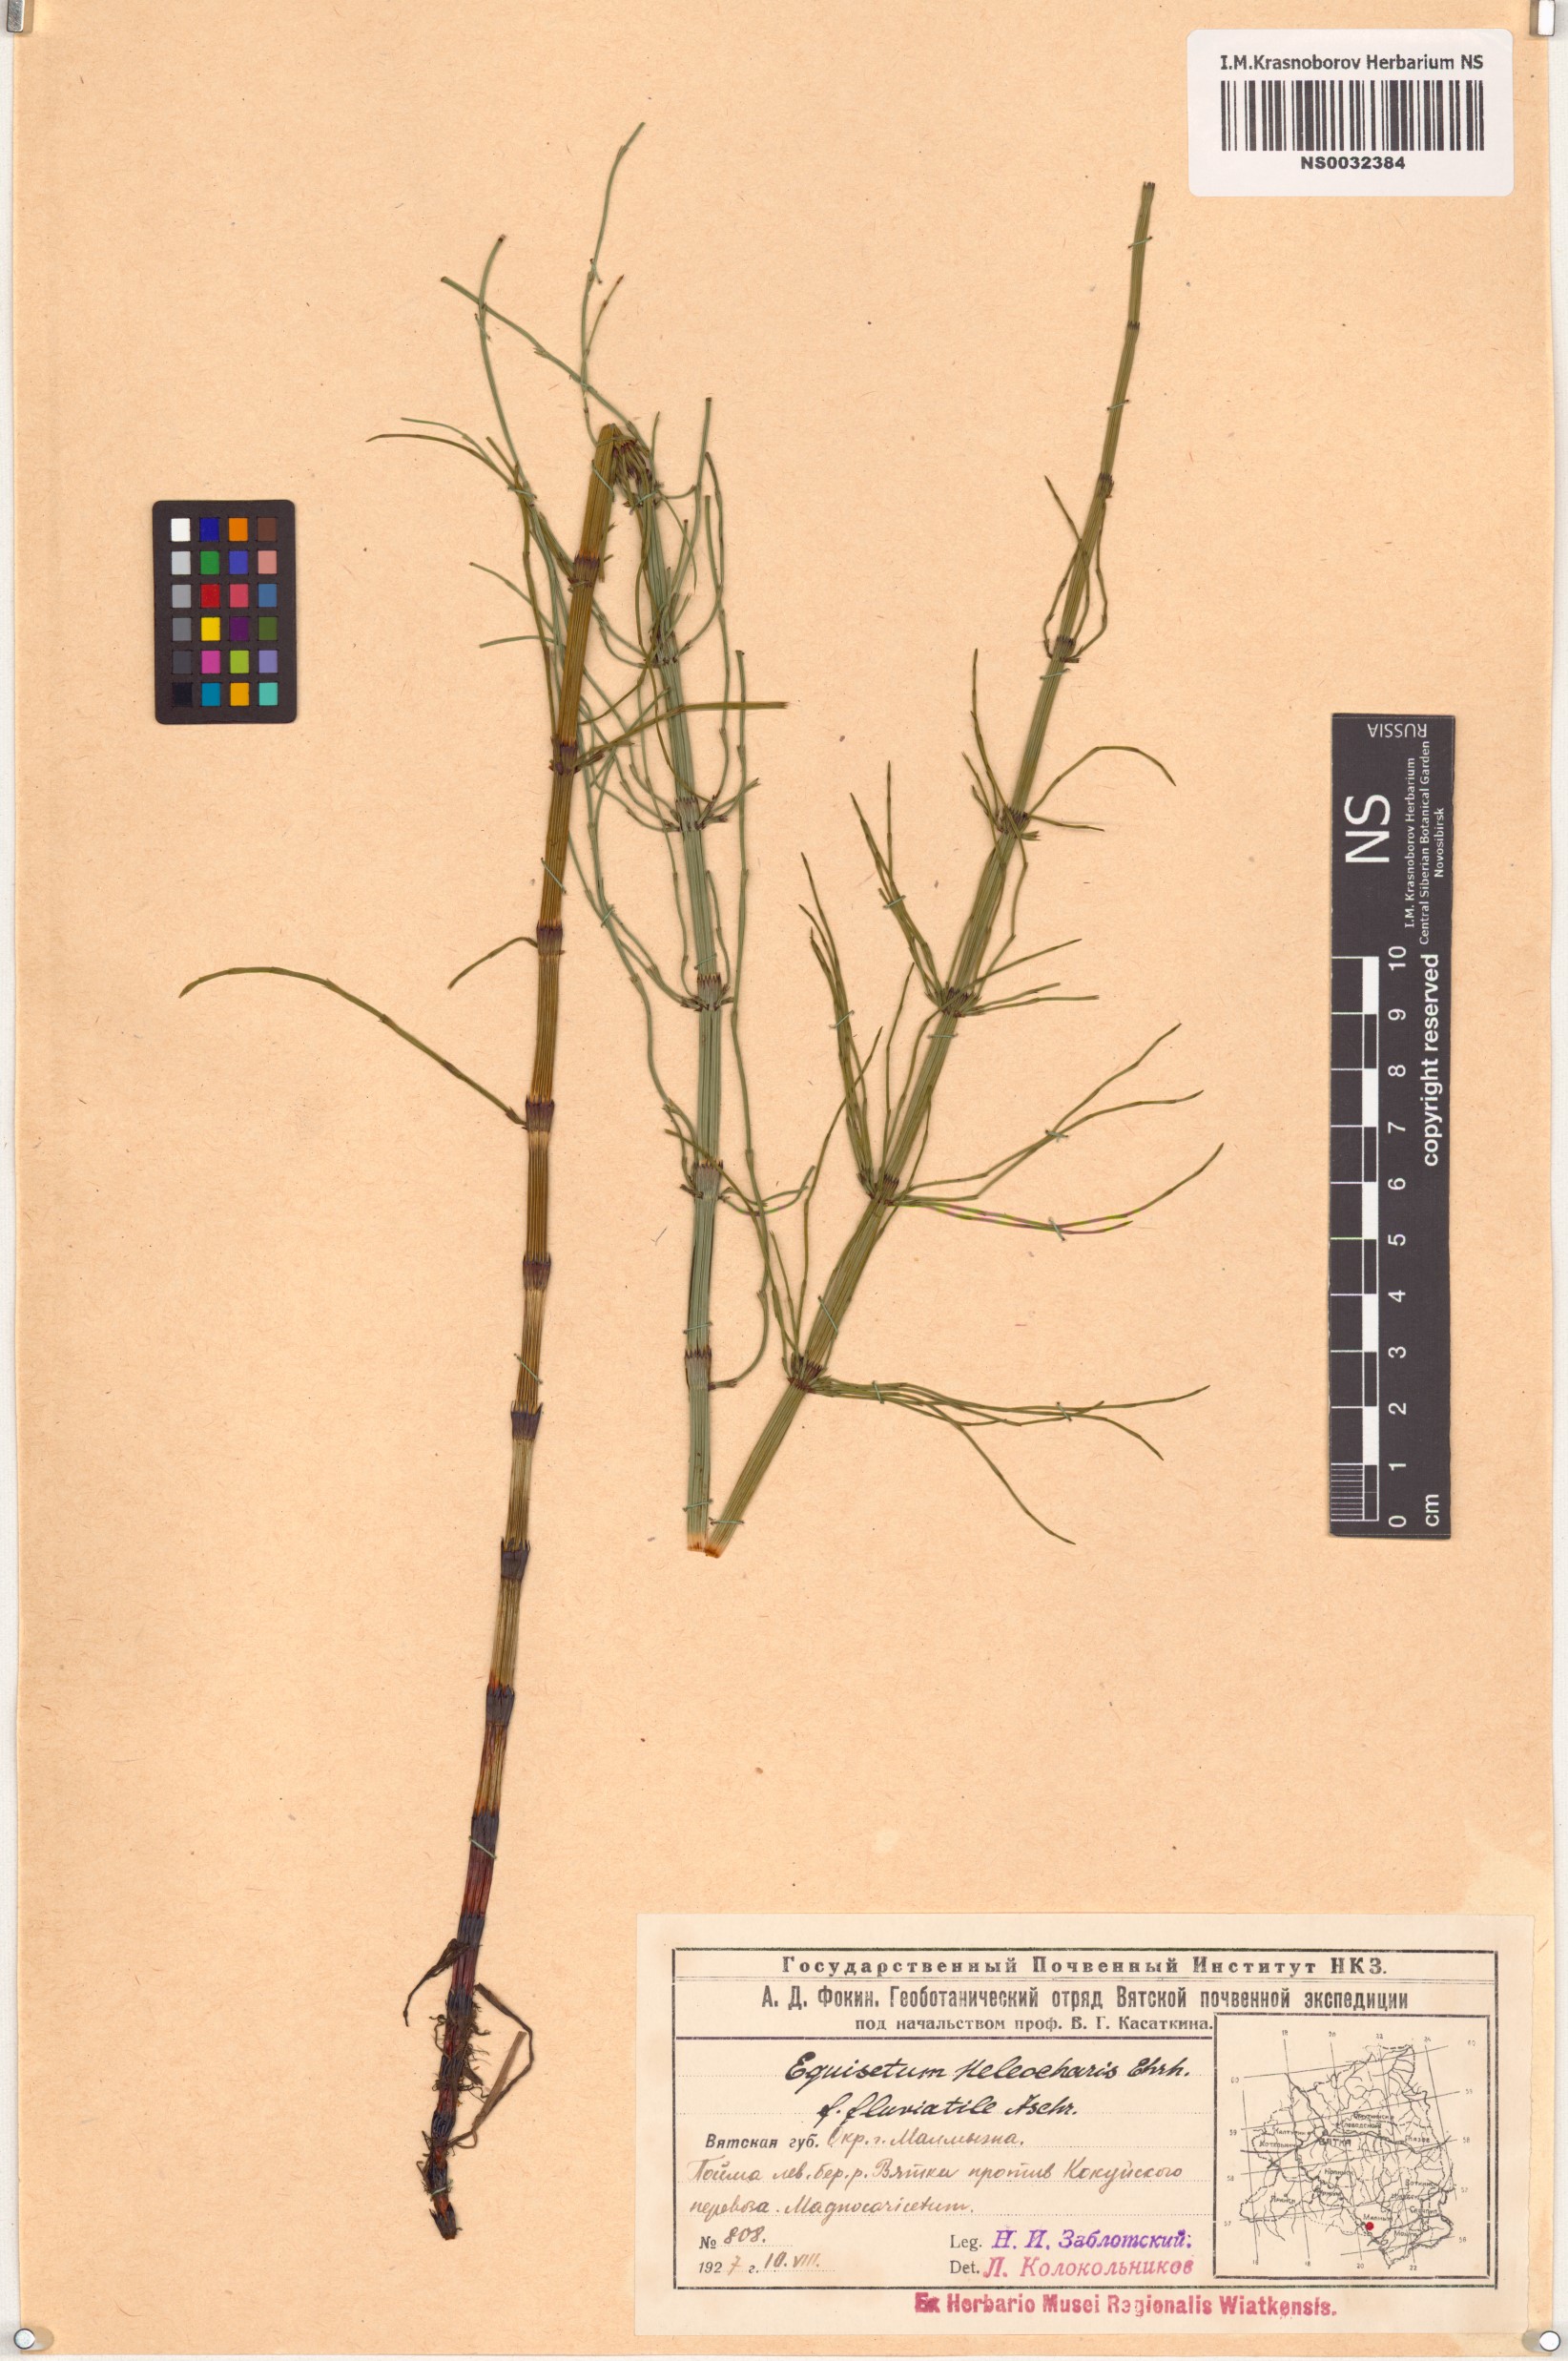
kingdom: Plantae
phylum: Tracheophyta
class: Polypodiopsida
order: Equisetales
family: Equisetaceae
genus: Equisetum
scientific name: Equisetum fluviatile
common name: Water horsetail
